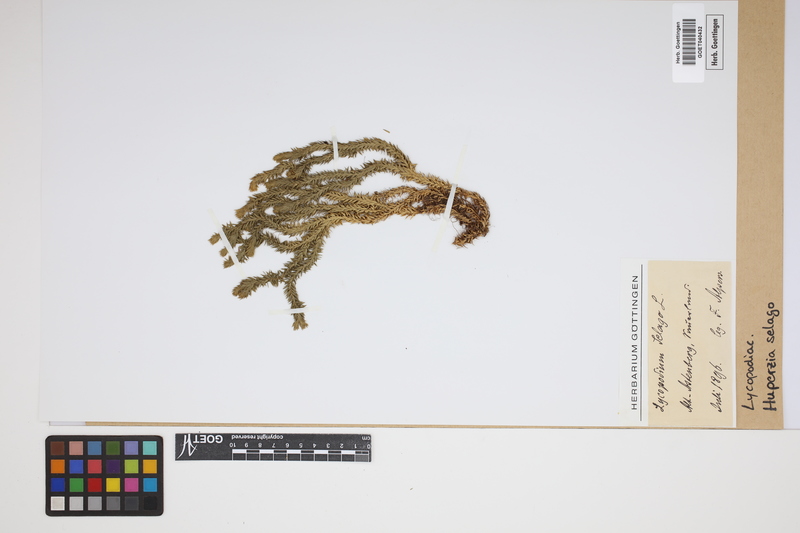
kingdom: Plantae
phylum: Tracheophyta
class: Lycopodiopsida
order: Lycopodiales
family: Lycopodiaceae
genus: Huperzia
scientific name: Huperzia selago
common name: Northern firmoss
